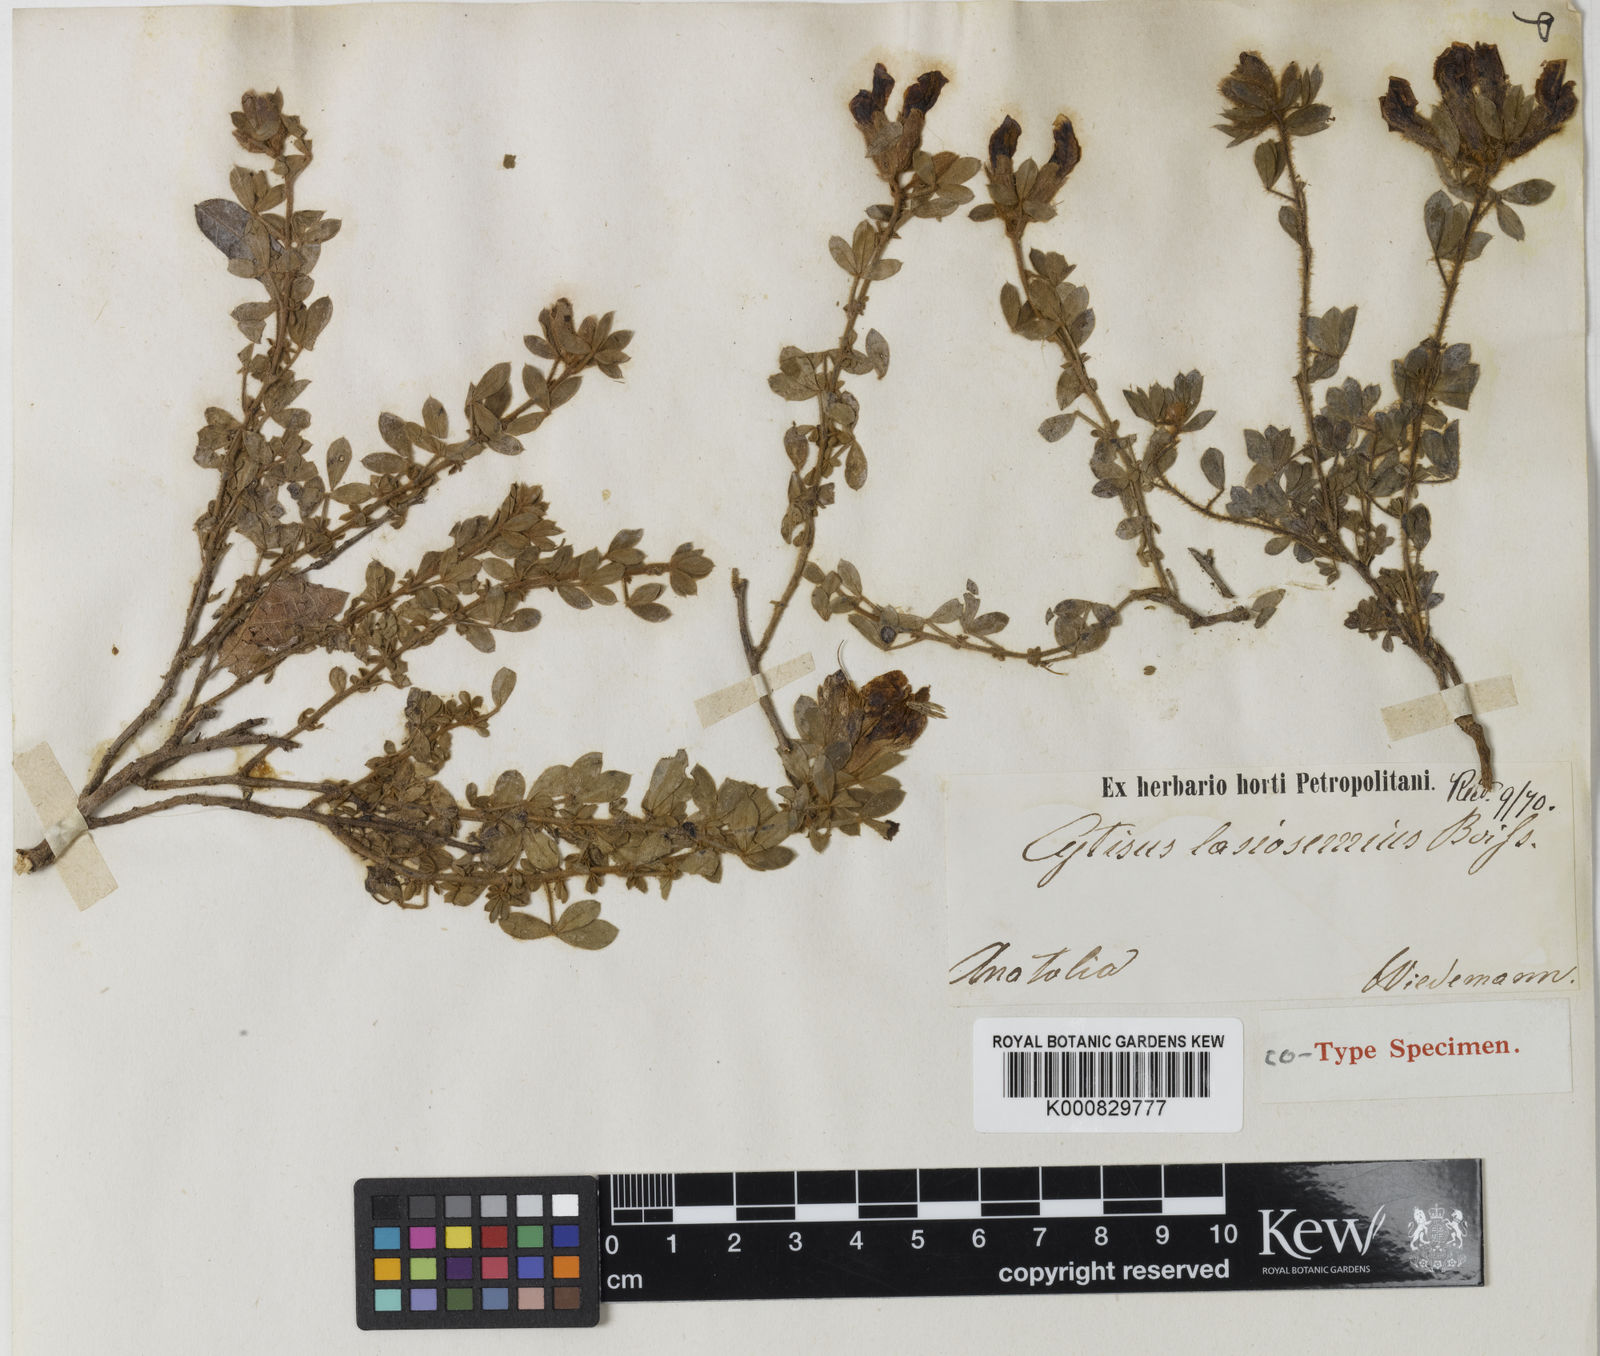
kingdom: Plantae
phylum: Tracheophyta
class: Magnoliopsida
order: Fabales
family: Fabaceae
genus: Chamaecytisus
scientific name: Chamaecytisus frivaldszkyanus
